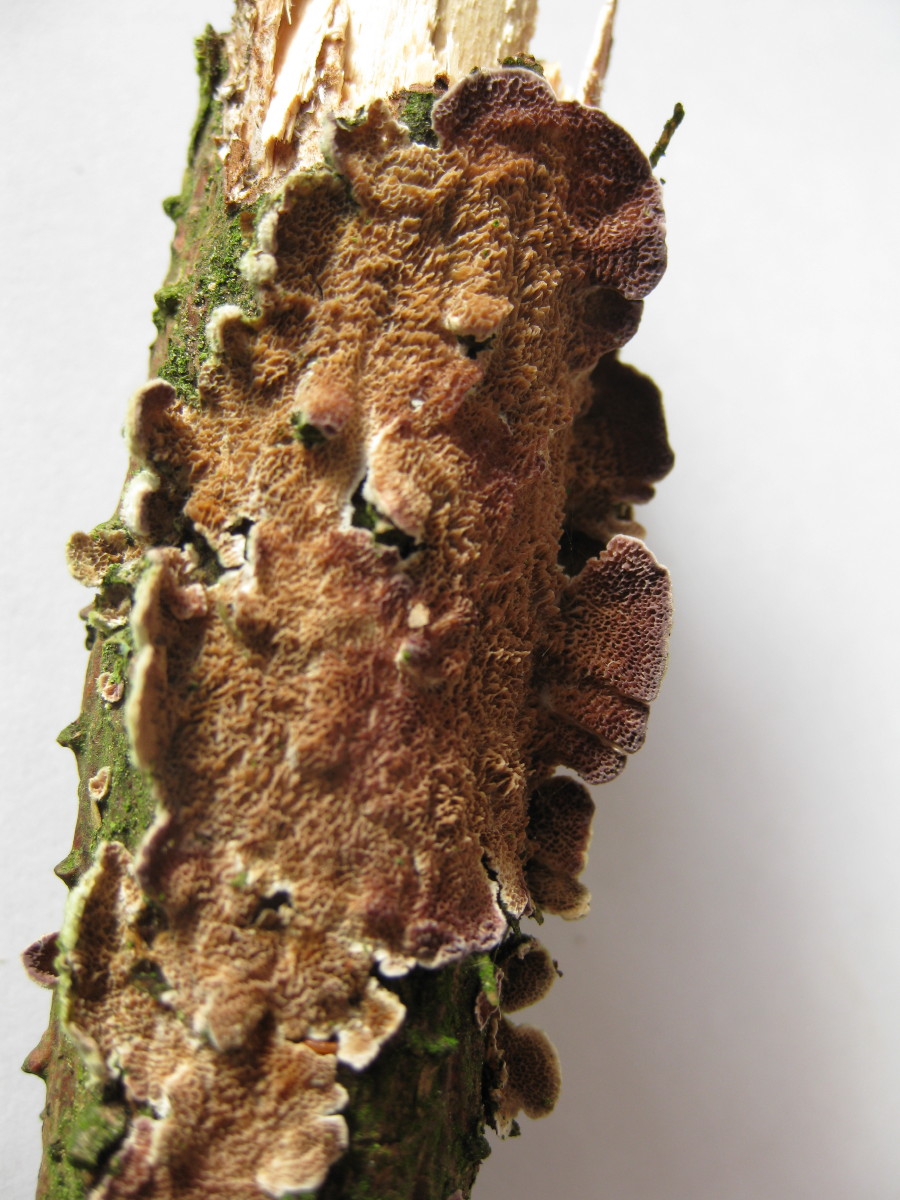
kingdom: Fungi
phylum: Basidiomycota
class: Agaricomycetes
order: Hymenochaetales
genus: Trichaptum
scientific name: Trichaptum abietinum
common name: almindelig violporesvamp
